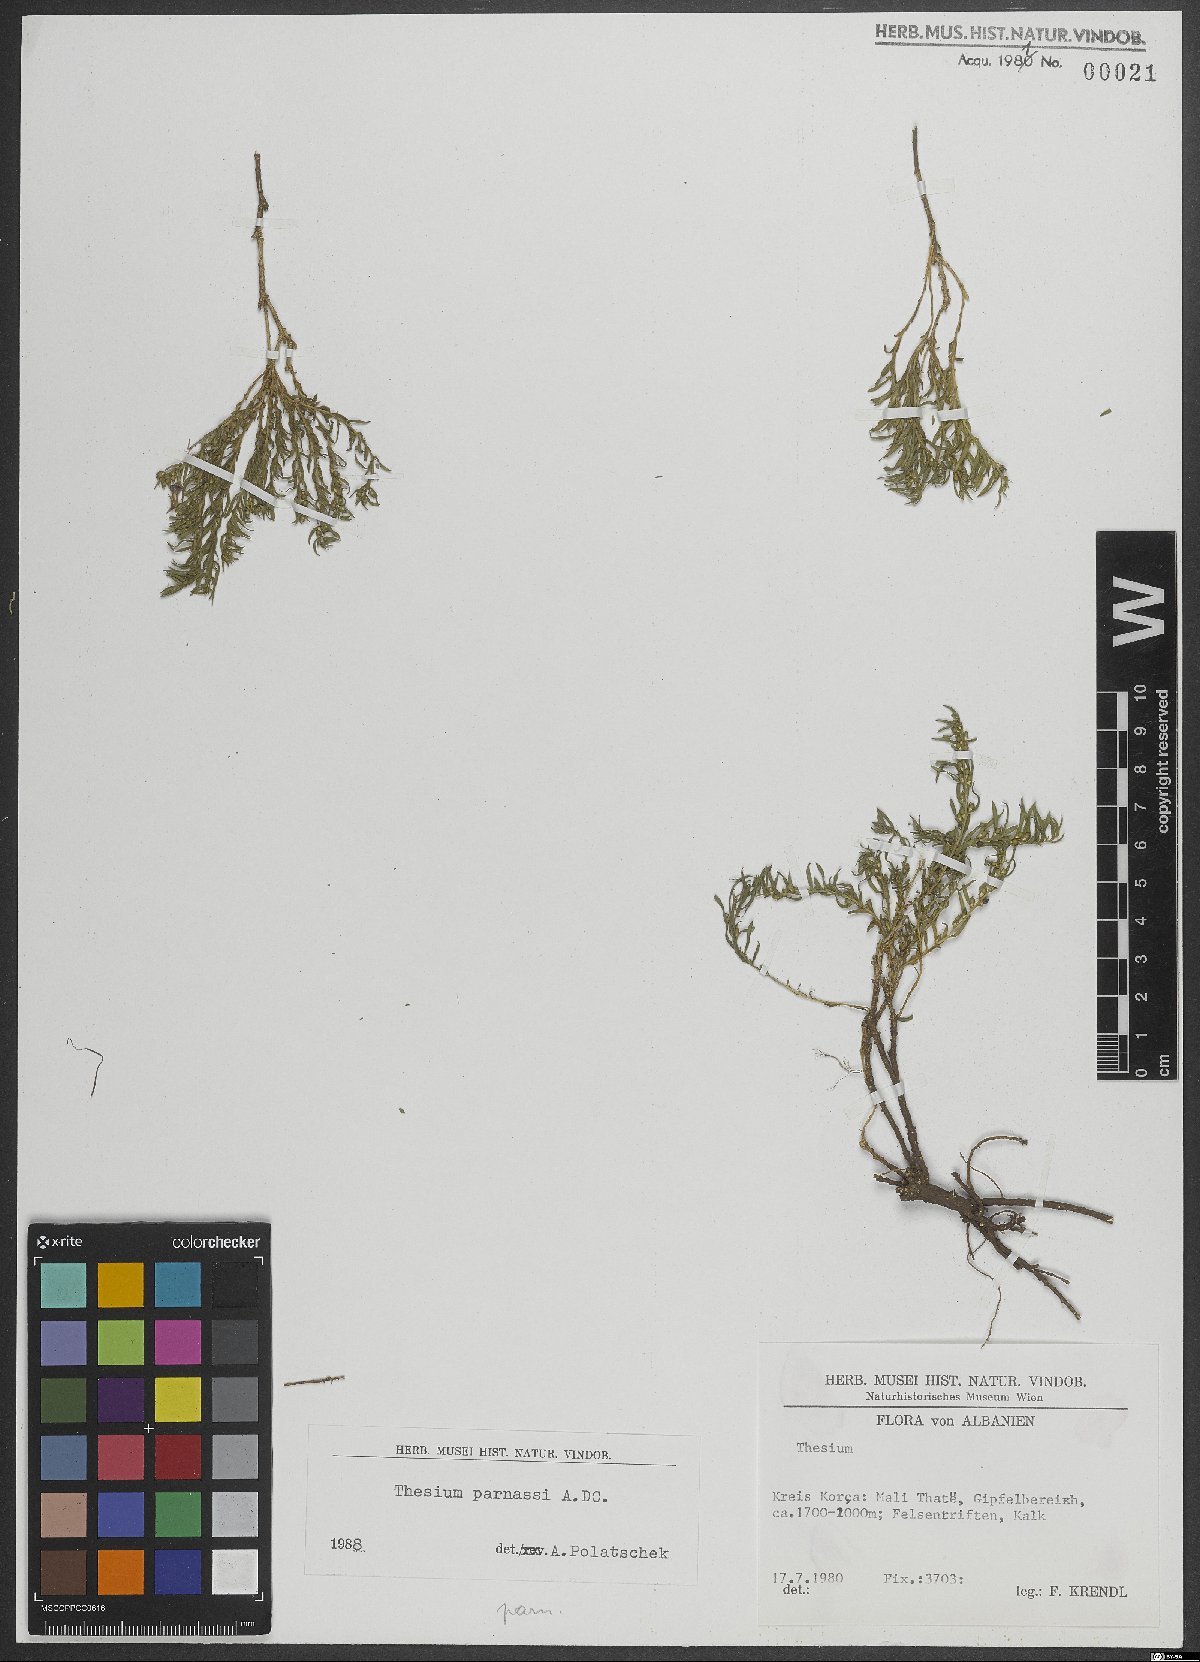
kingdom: Plantae
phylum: Tracheophyta
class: Magnoliopsida
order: Santalales
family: Thesiaceae
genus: Thesium
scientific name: Thesium parnassi
